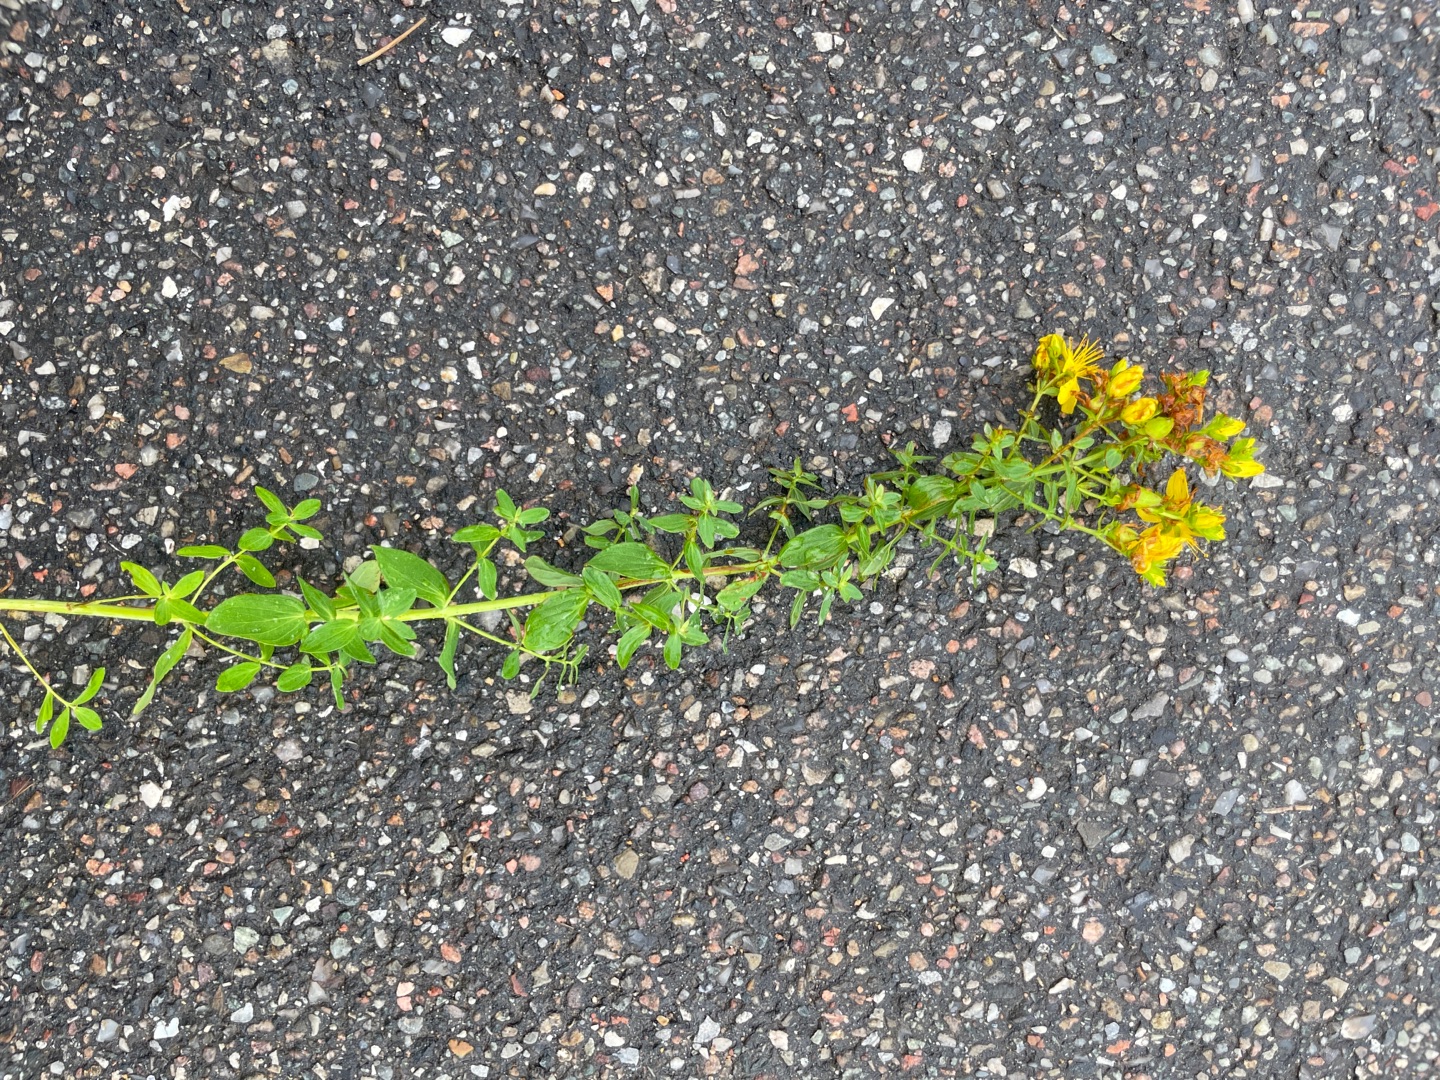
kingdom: Plantae
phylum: Tracheophyta
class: Magnoliopsida
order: Malpighiales
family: Hypericaceae
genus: Hypericum
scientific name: Hypericum perforatum
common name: Prikbladet perikon
